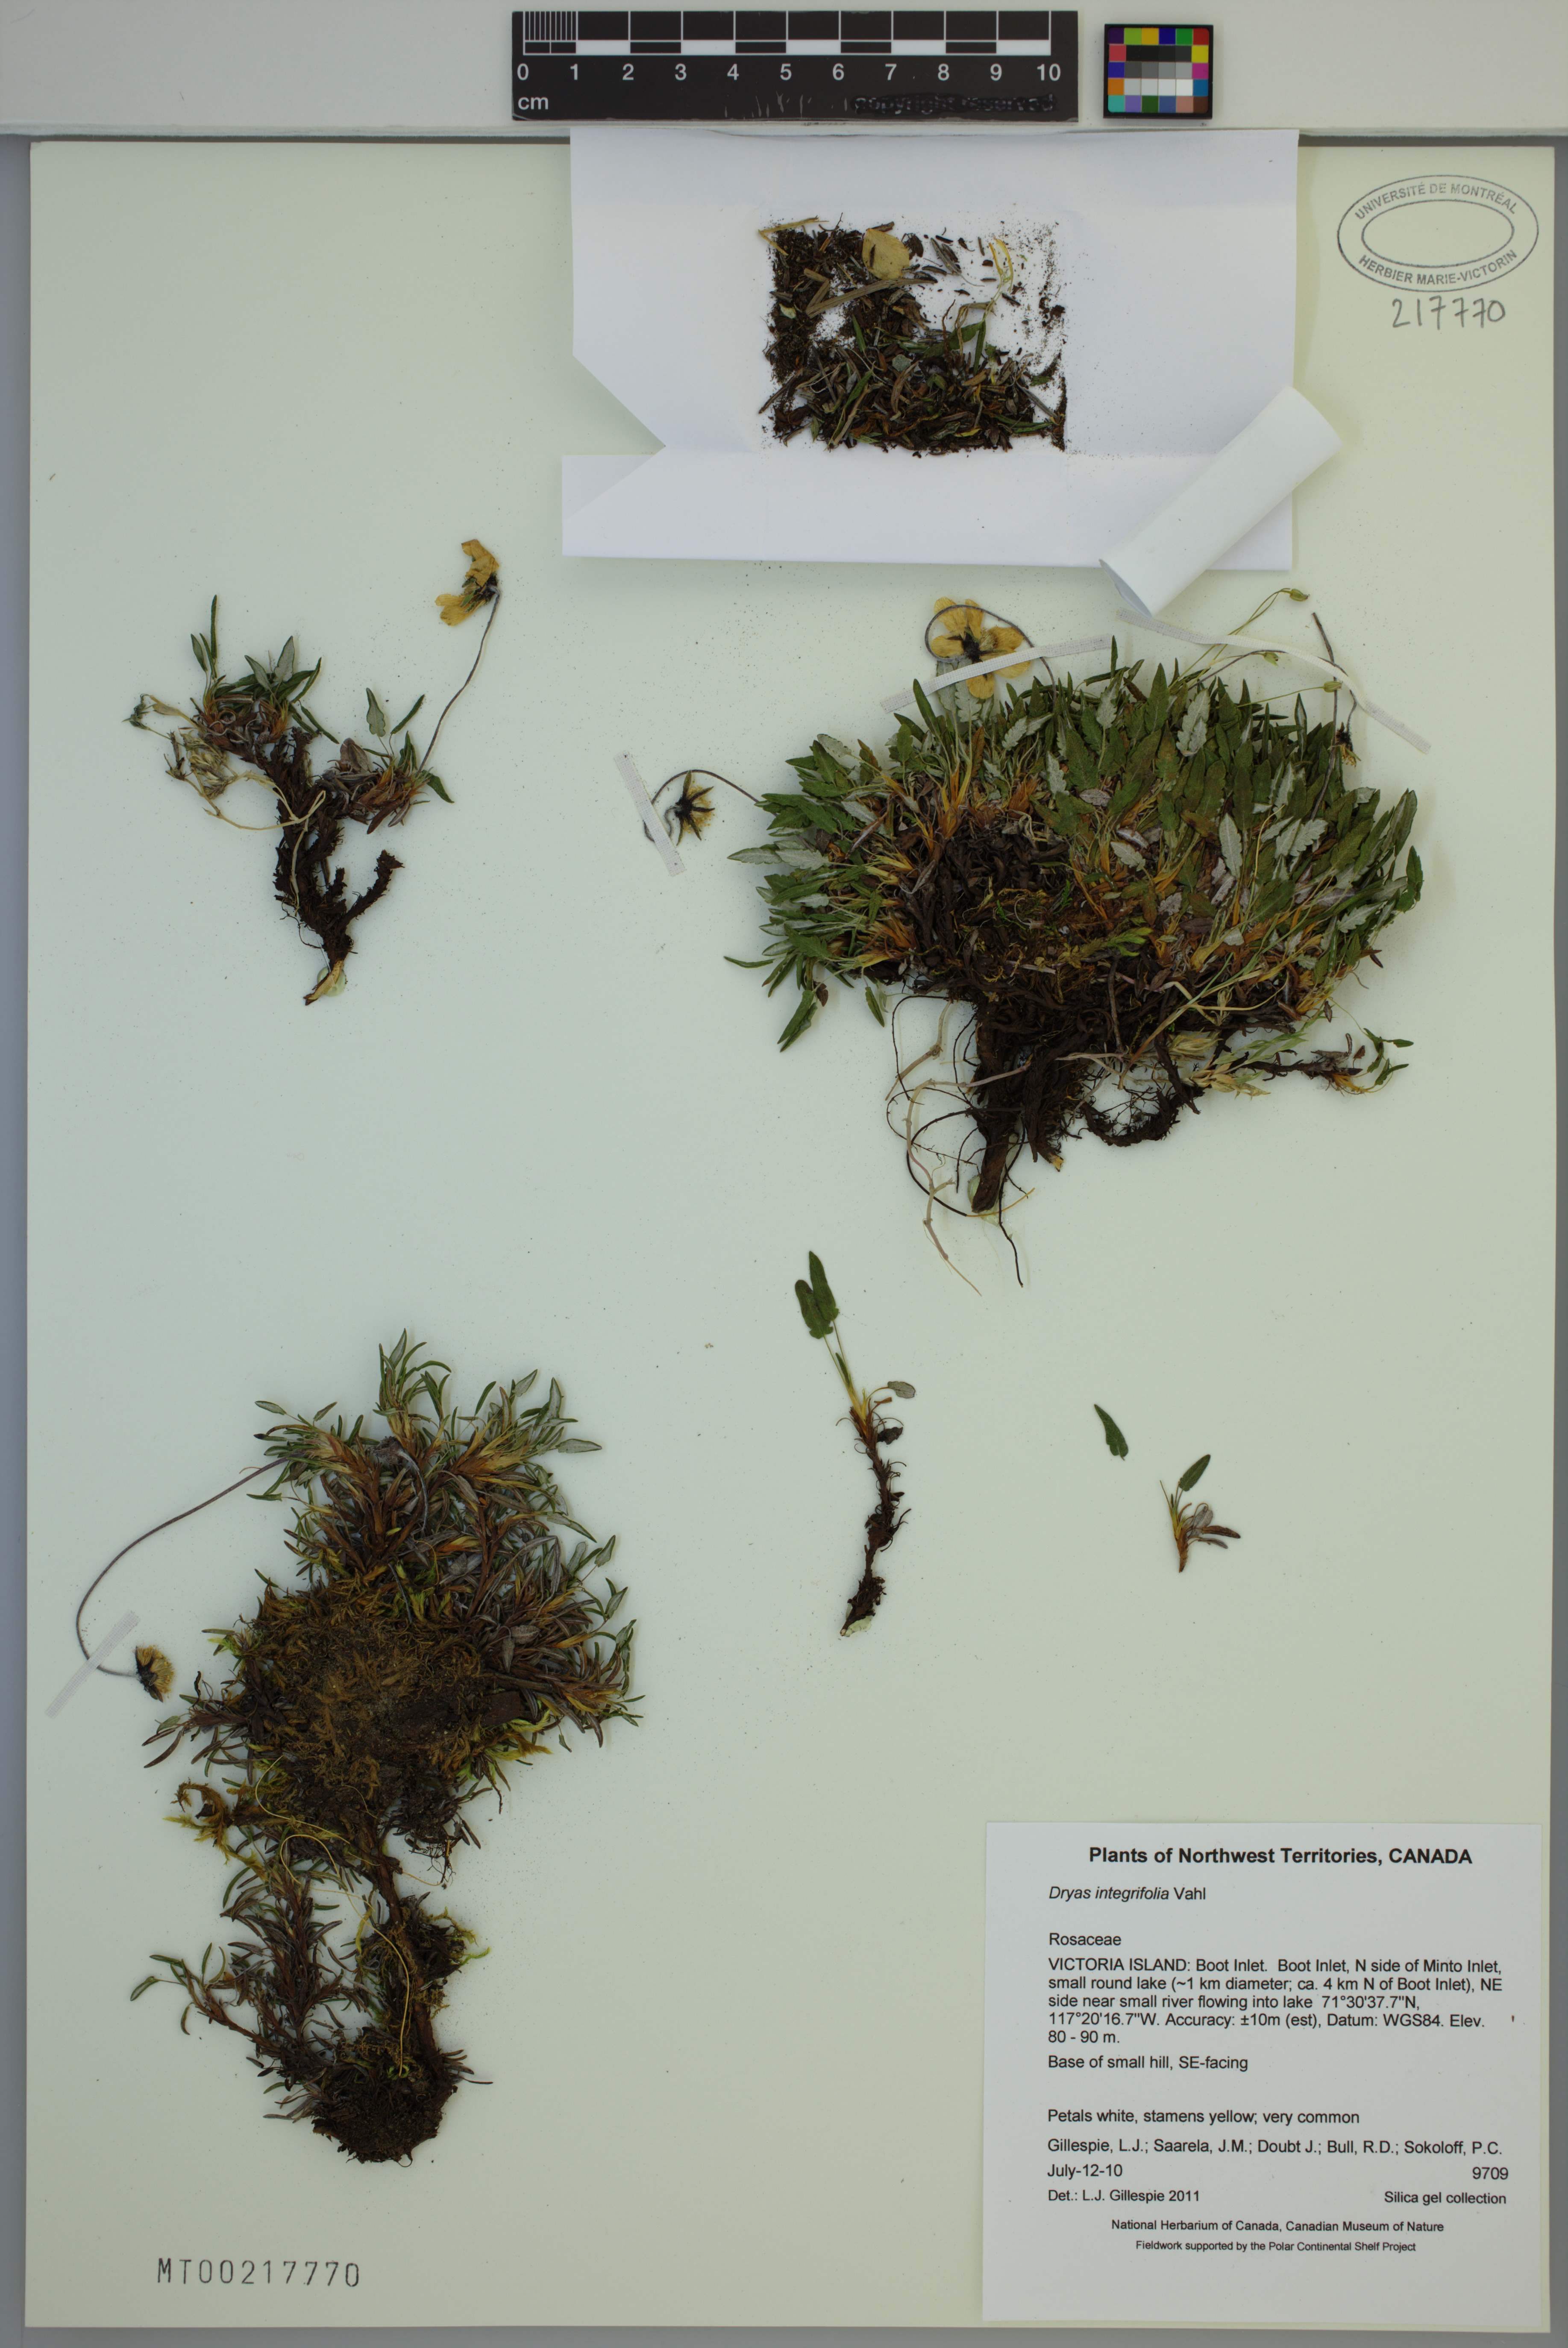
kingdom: Plantae
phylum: Tracheophyta
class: Magnoliopsida
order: Rosales
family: Rosaceae
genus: Dryas
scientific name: Dryas integrifolia
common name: Entire-leaved mountain avens
